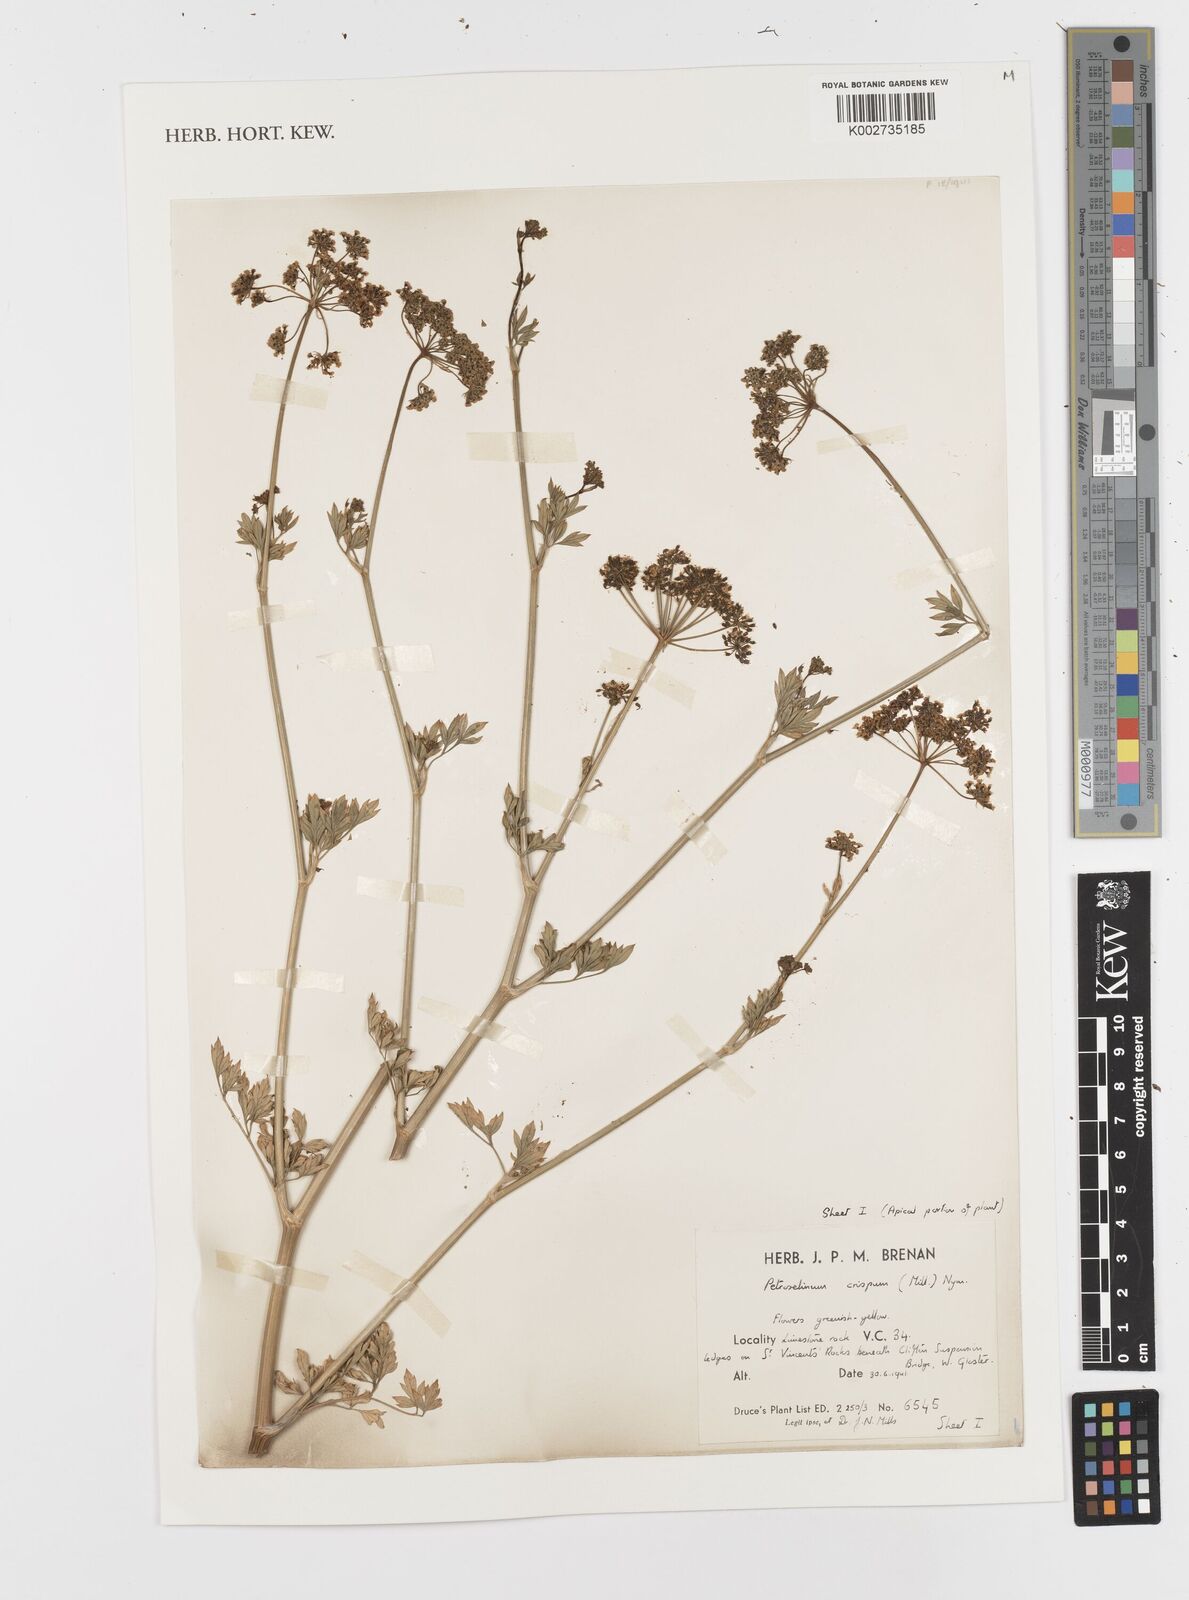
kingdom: Plantae
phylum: Tracheophyta
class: Magnoliopsida
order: Apiales
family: Apiaceae
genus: Petroselinum
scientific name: Petroselinum crispum
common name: Parsley
